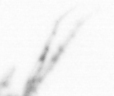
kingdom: Animalia
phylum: Arthropoda
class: Copepoda
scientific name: Copepoda
